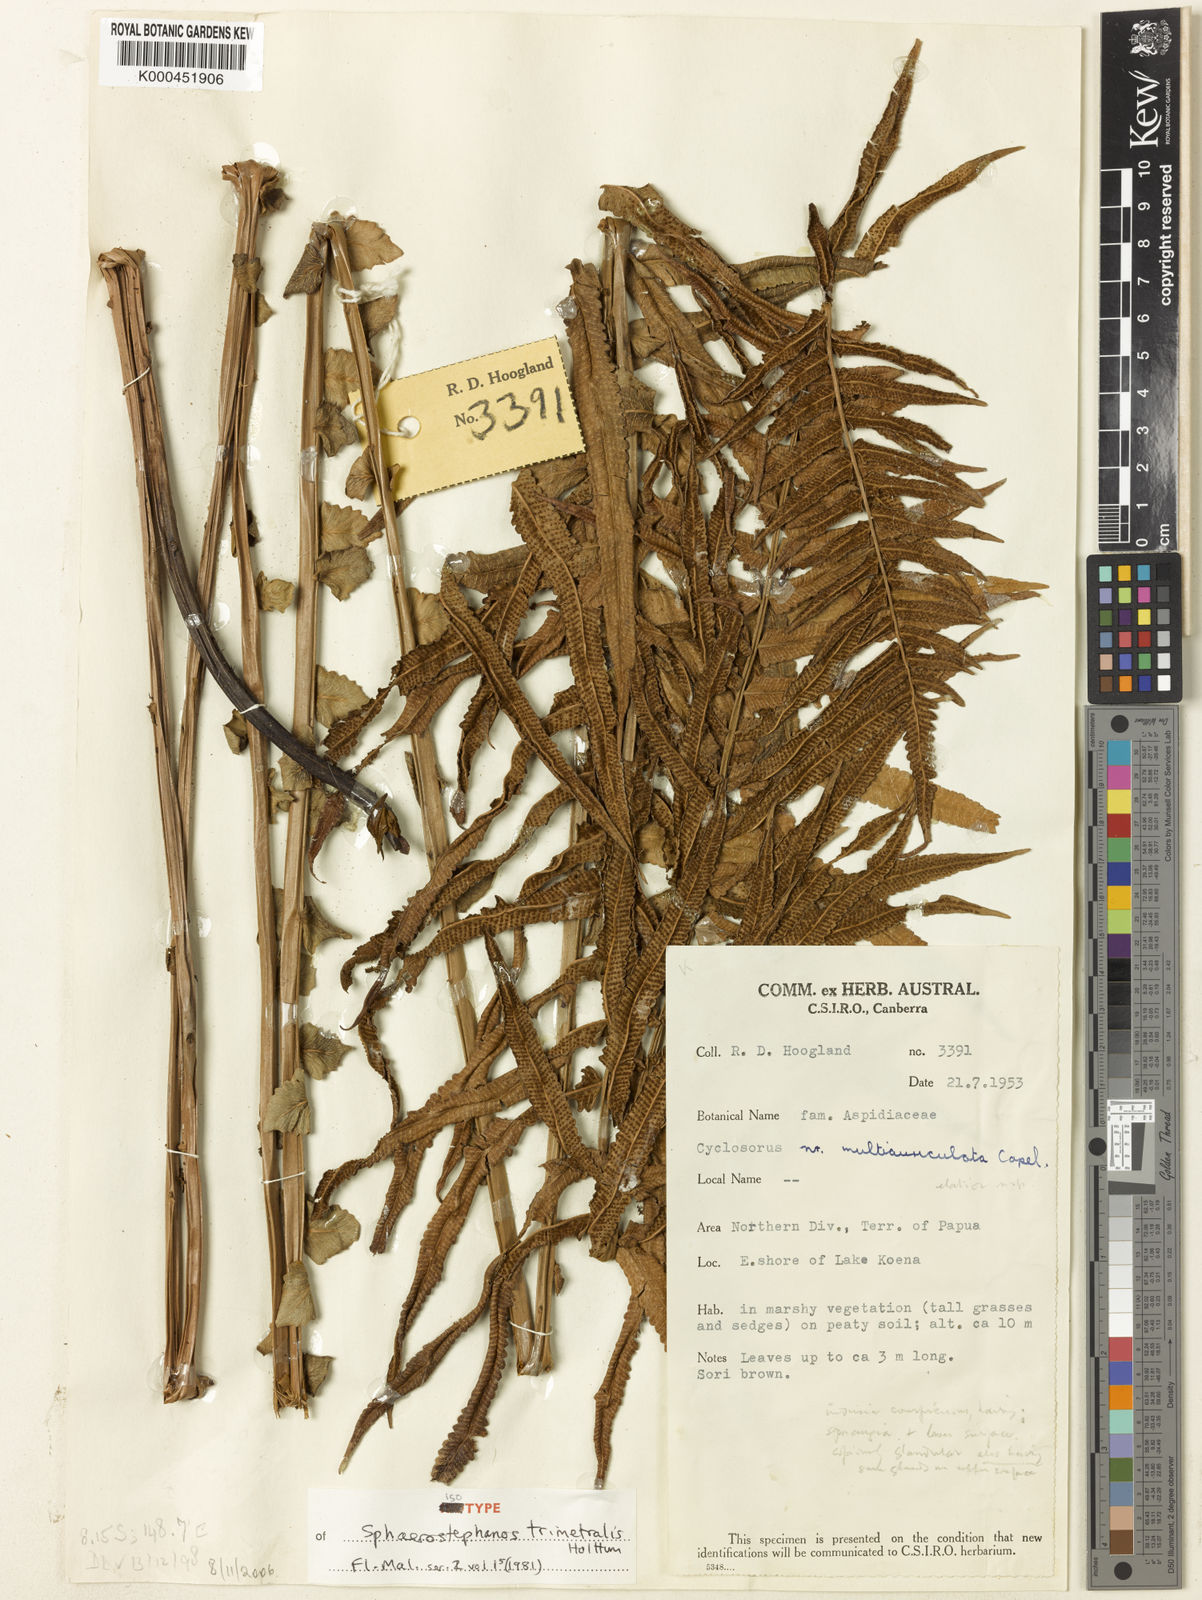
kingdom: Plantae
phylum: Tracheophyta
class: Polypodiopsida
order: Polypodiales
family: Thelypteridaceae
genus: Sphaerostephanos
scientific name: Sphaerostephanos trimetralis
